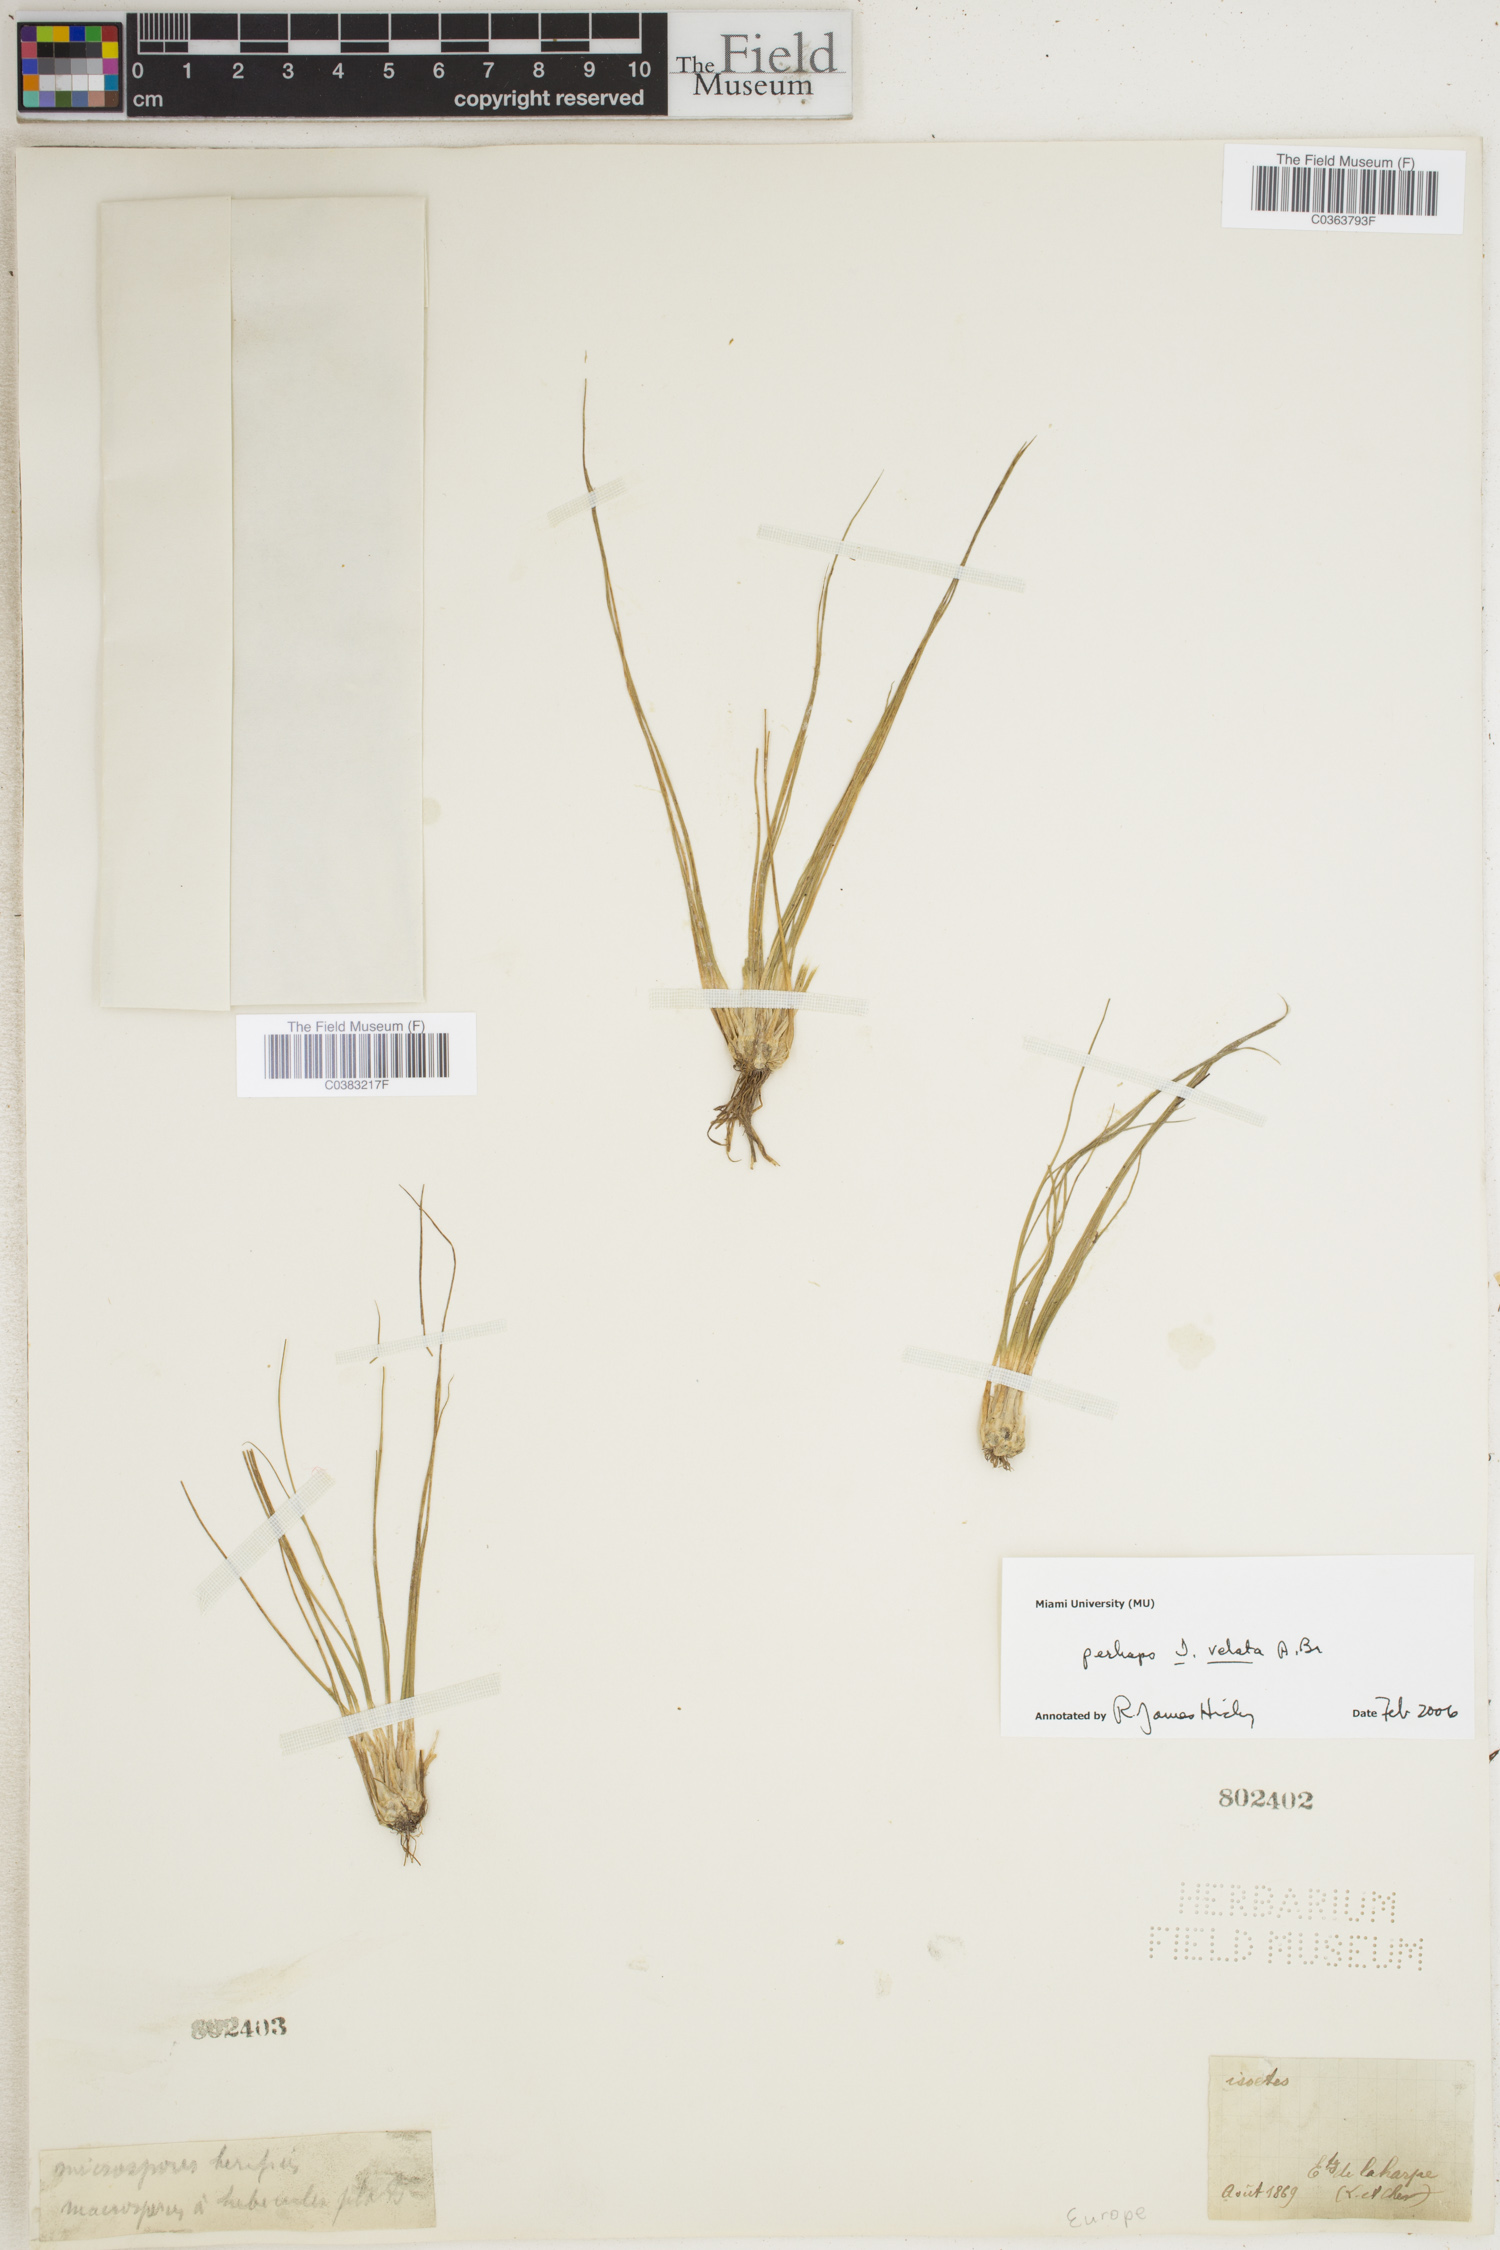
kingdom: Plantae
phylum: Tracheophyta
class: Lycopodiopsida
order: Isoetales
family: Isoetaceae
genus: Isoetes
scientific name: Isoetes longissima
